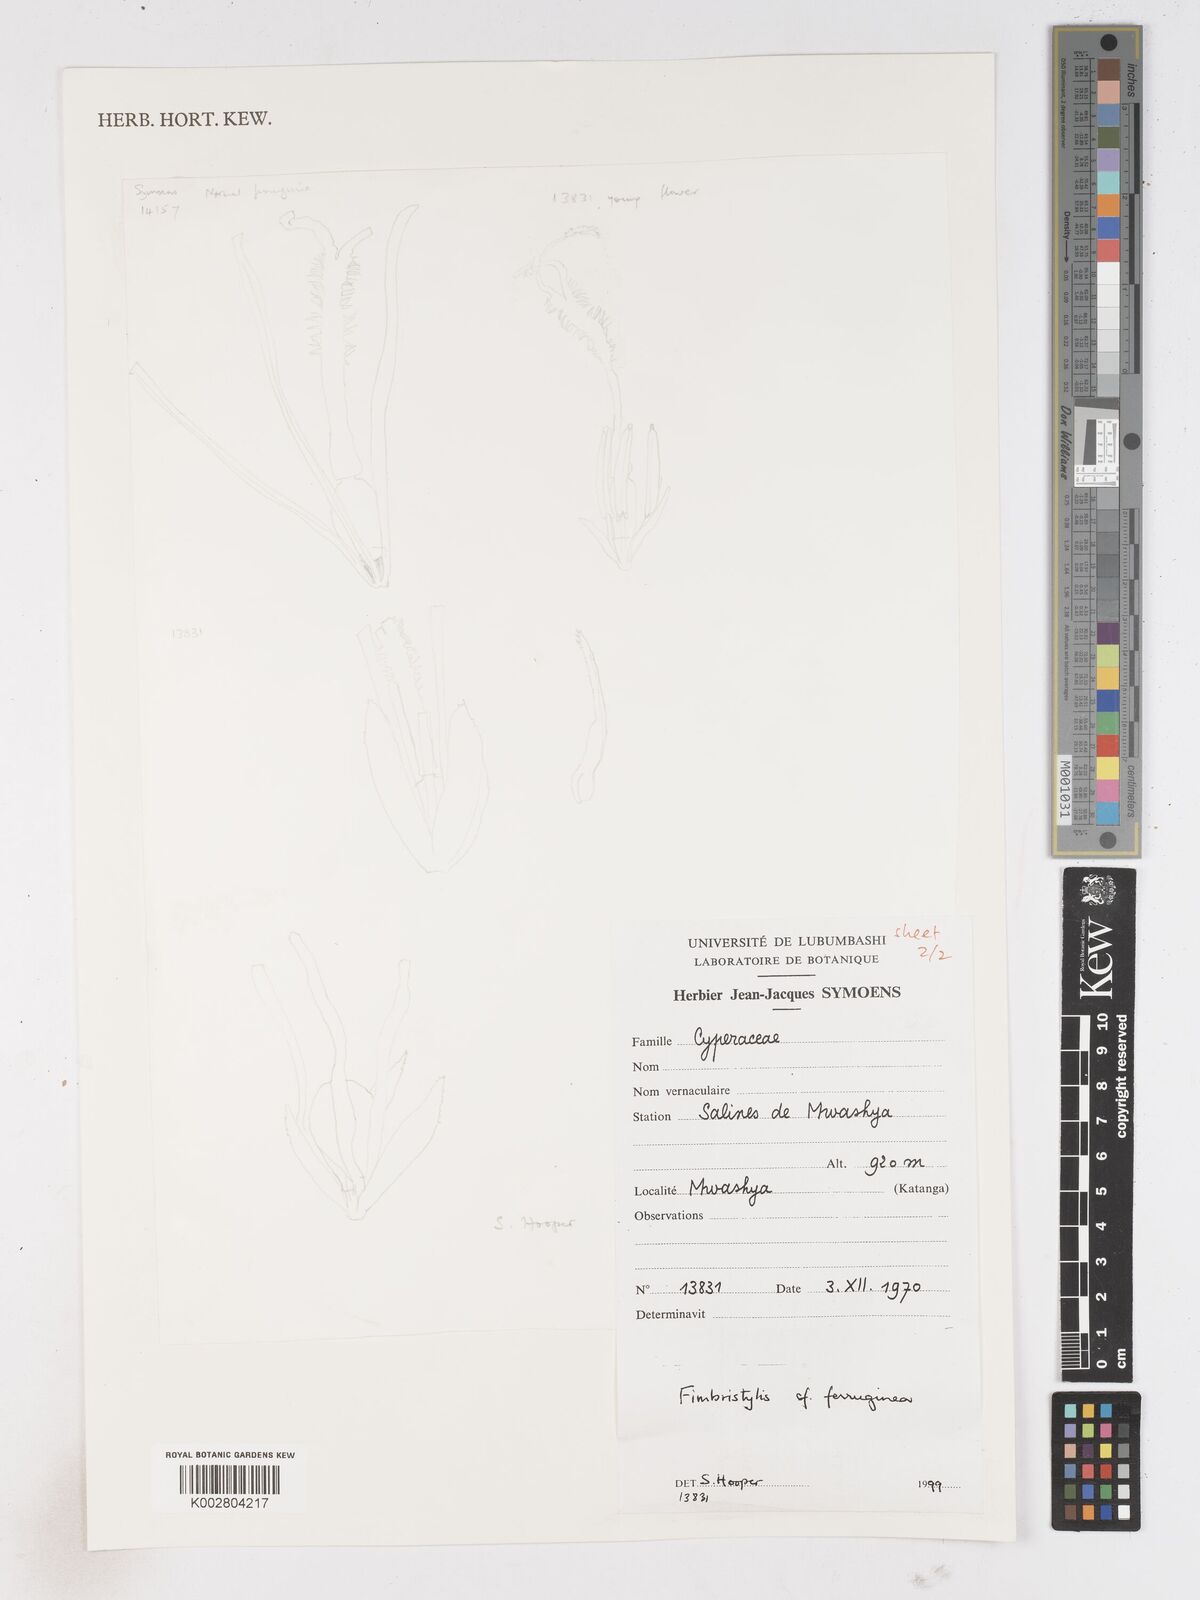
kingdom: Plantae
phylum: Tracheophyta
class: Liliopsida
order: Poales
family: Cyperaceae
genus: Fimbristylis
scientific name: Fimbristylis ferruginea
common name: West indian fimbry
